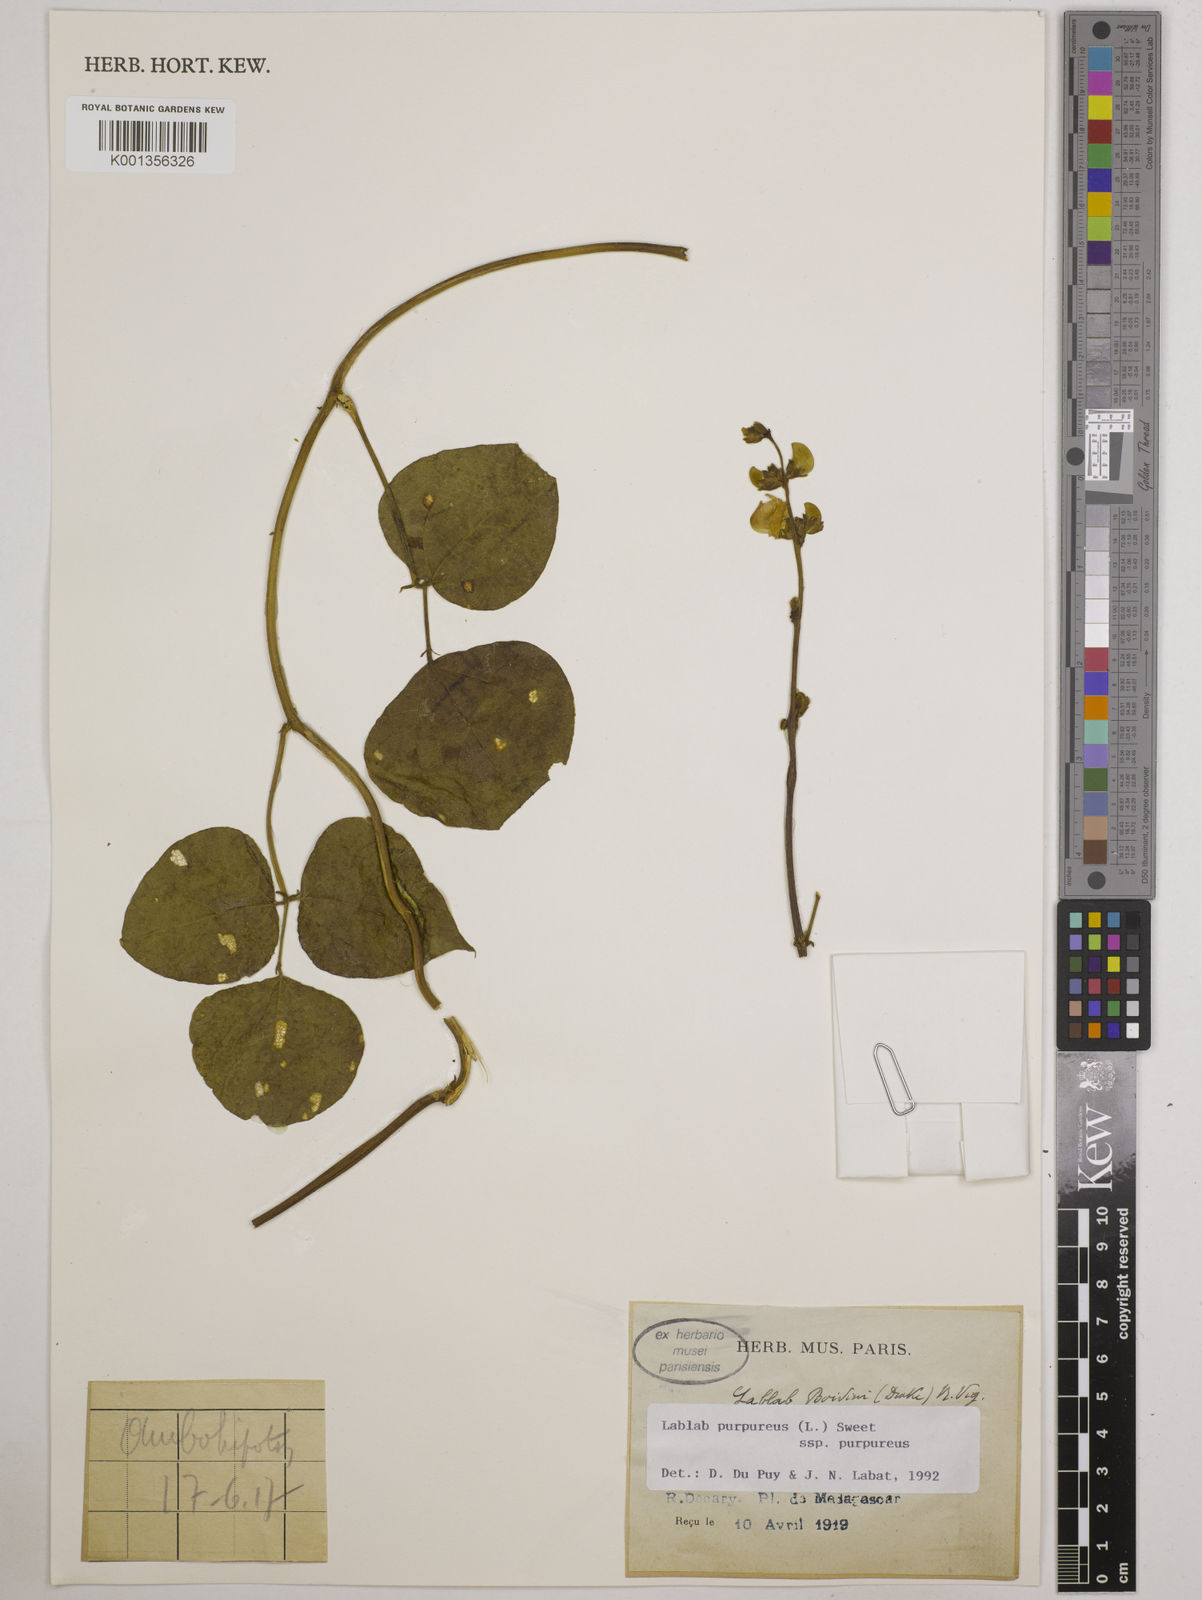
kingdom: Plantae
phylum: Tracheophyta
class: Magnoliopsida
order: Fabales
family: Fabaceae
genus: Lablab
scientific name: Lablab purpureus
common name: Lablab-bean
